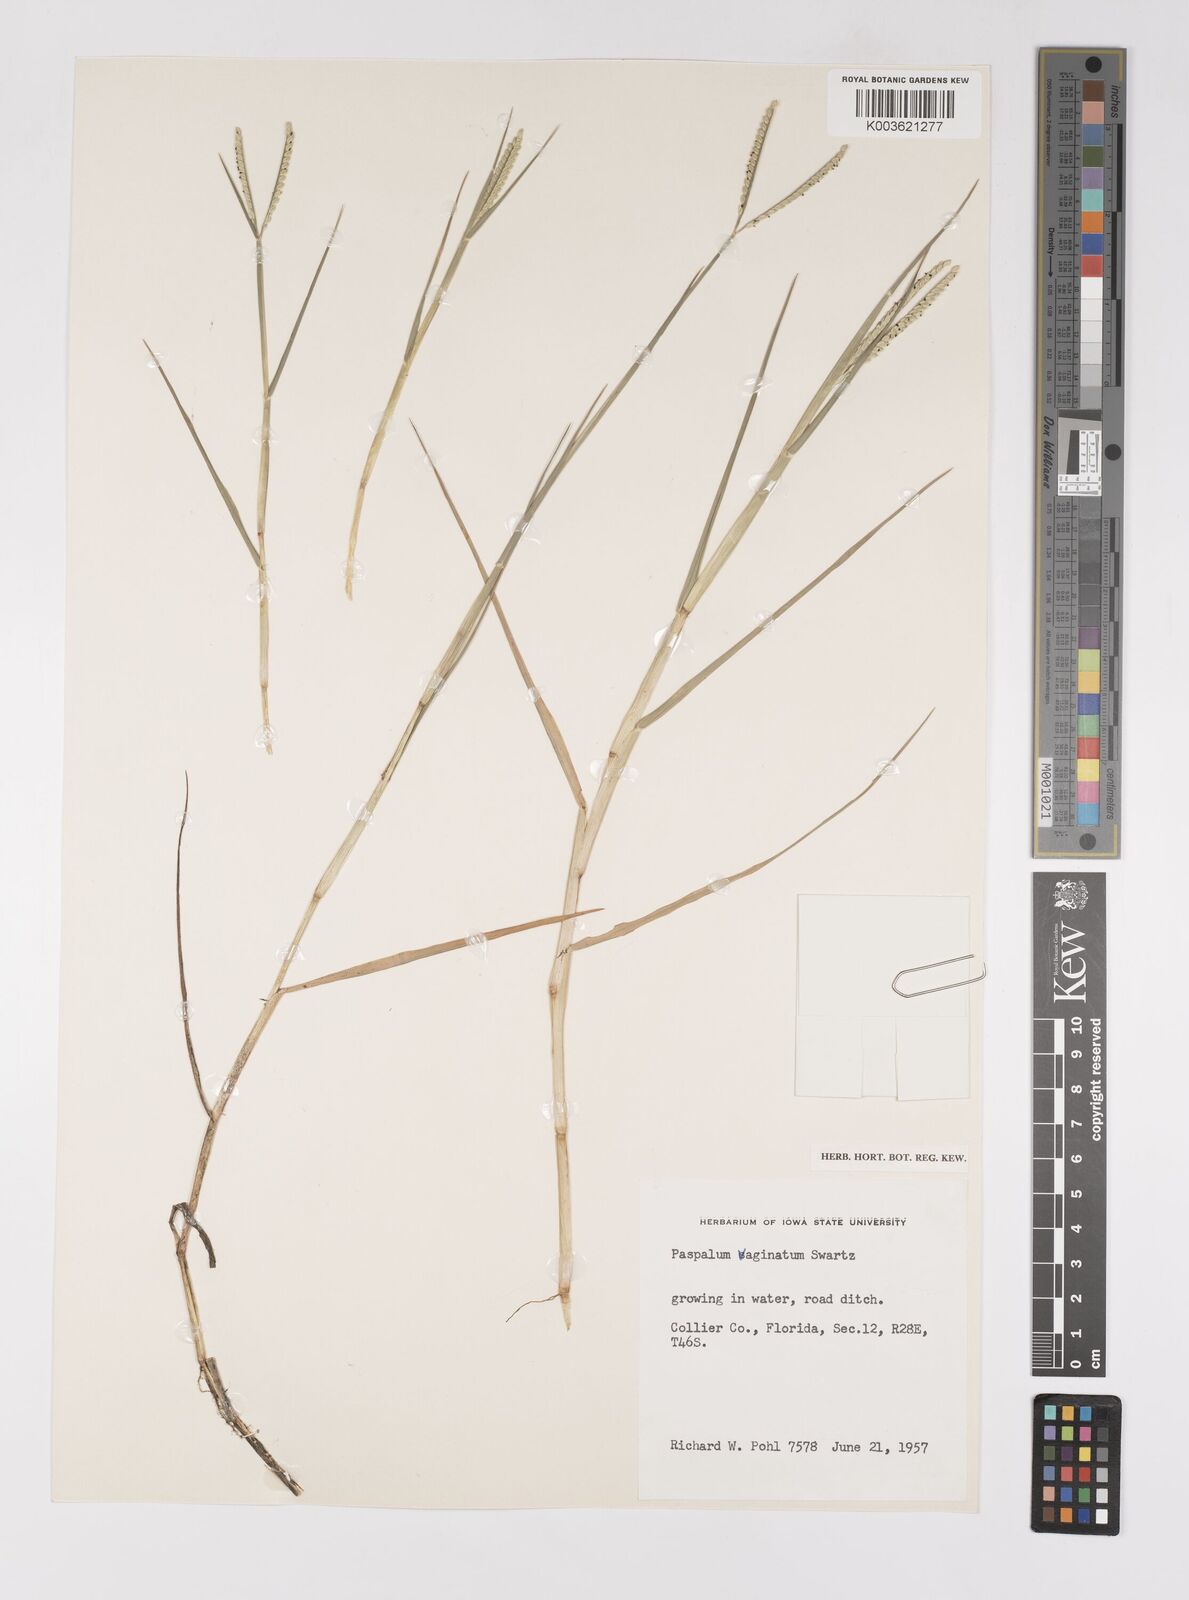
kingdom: Plantae
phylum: Tracheophyta
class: Liliopsida
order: Poales
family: Poaceae
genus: Paspalum
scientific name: Paspalum distichum
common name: Knotgrass
